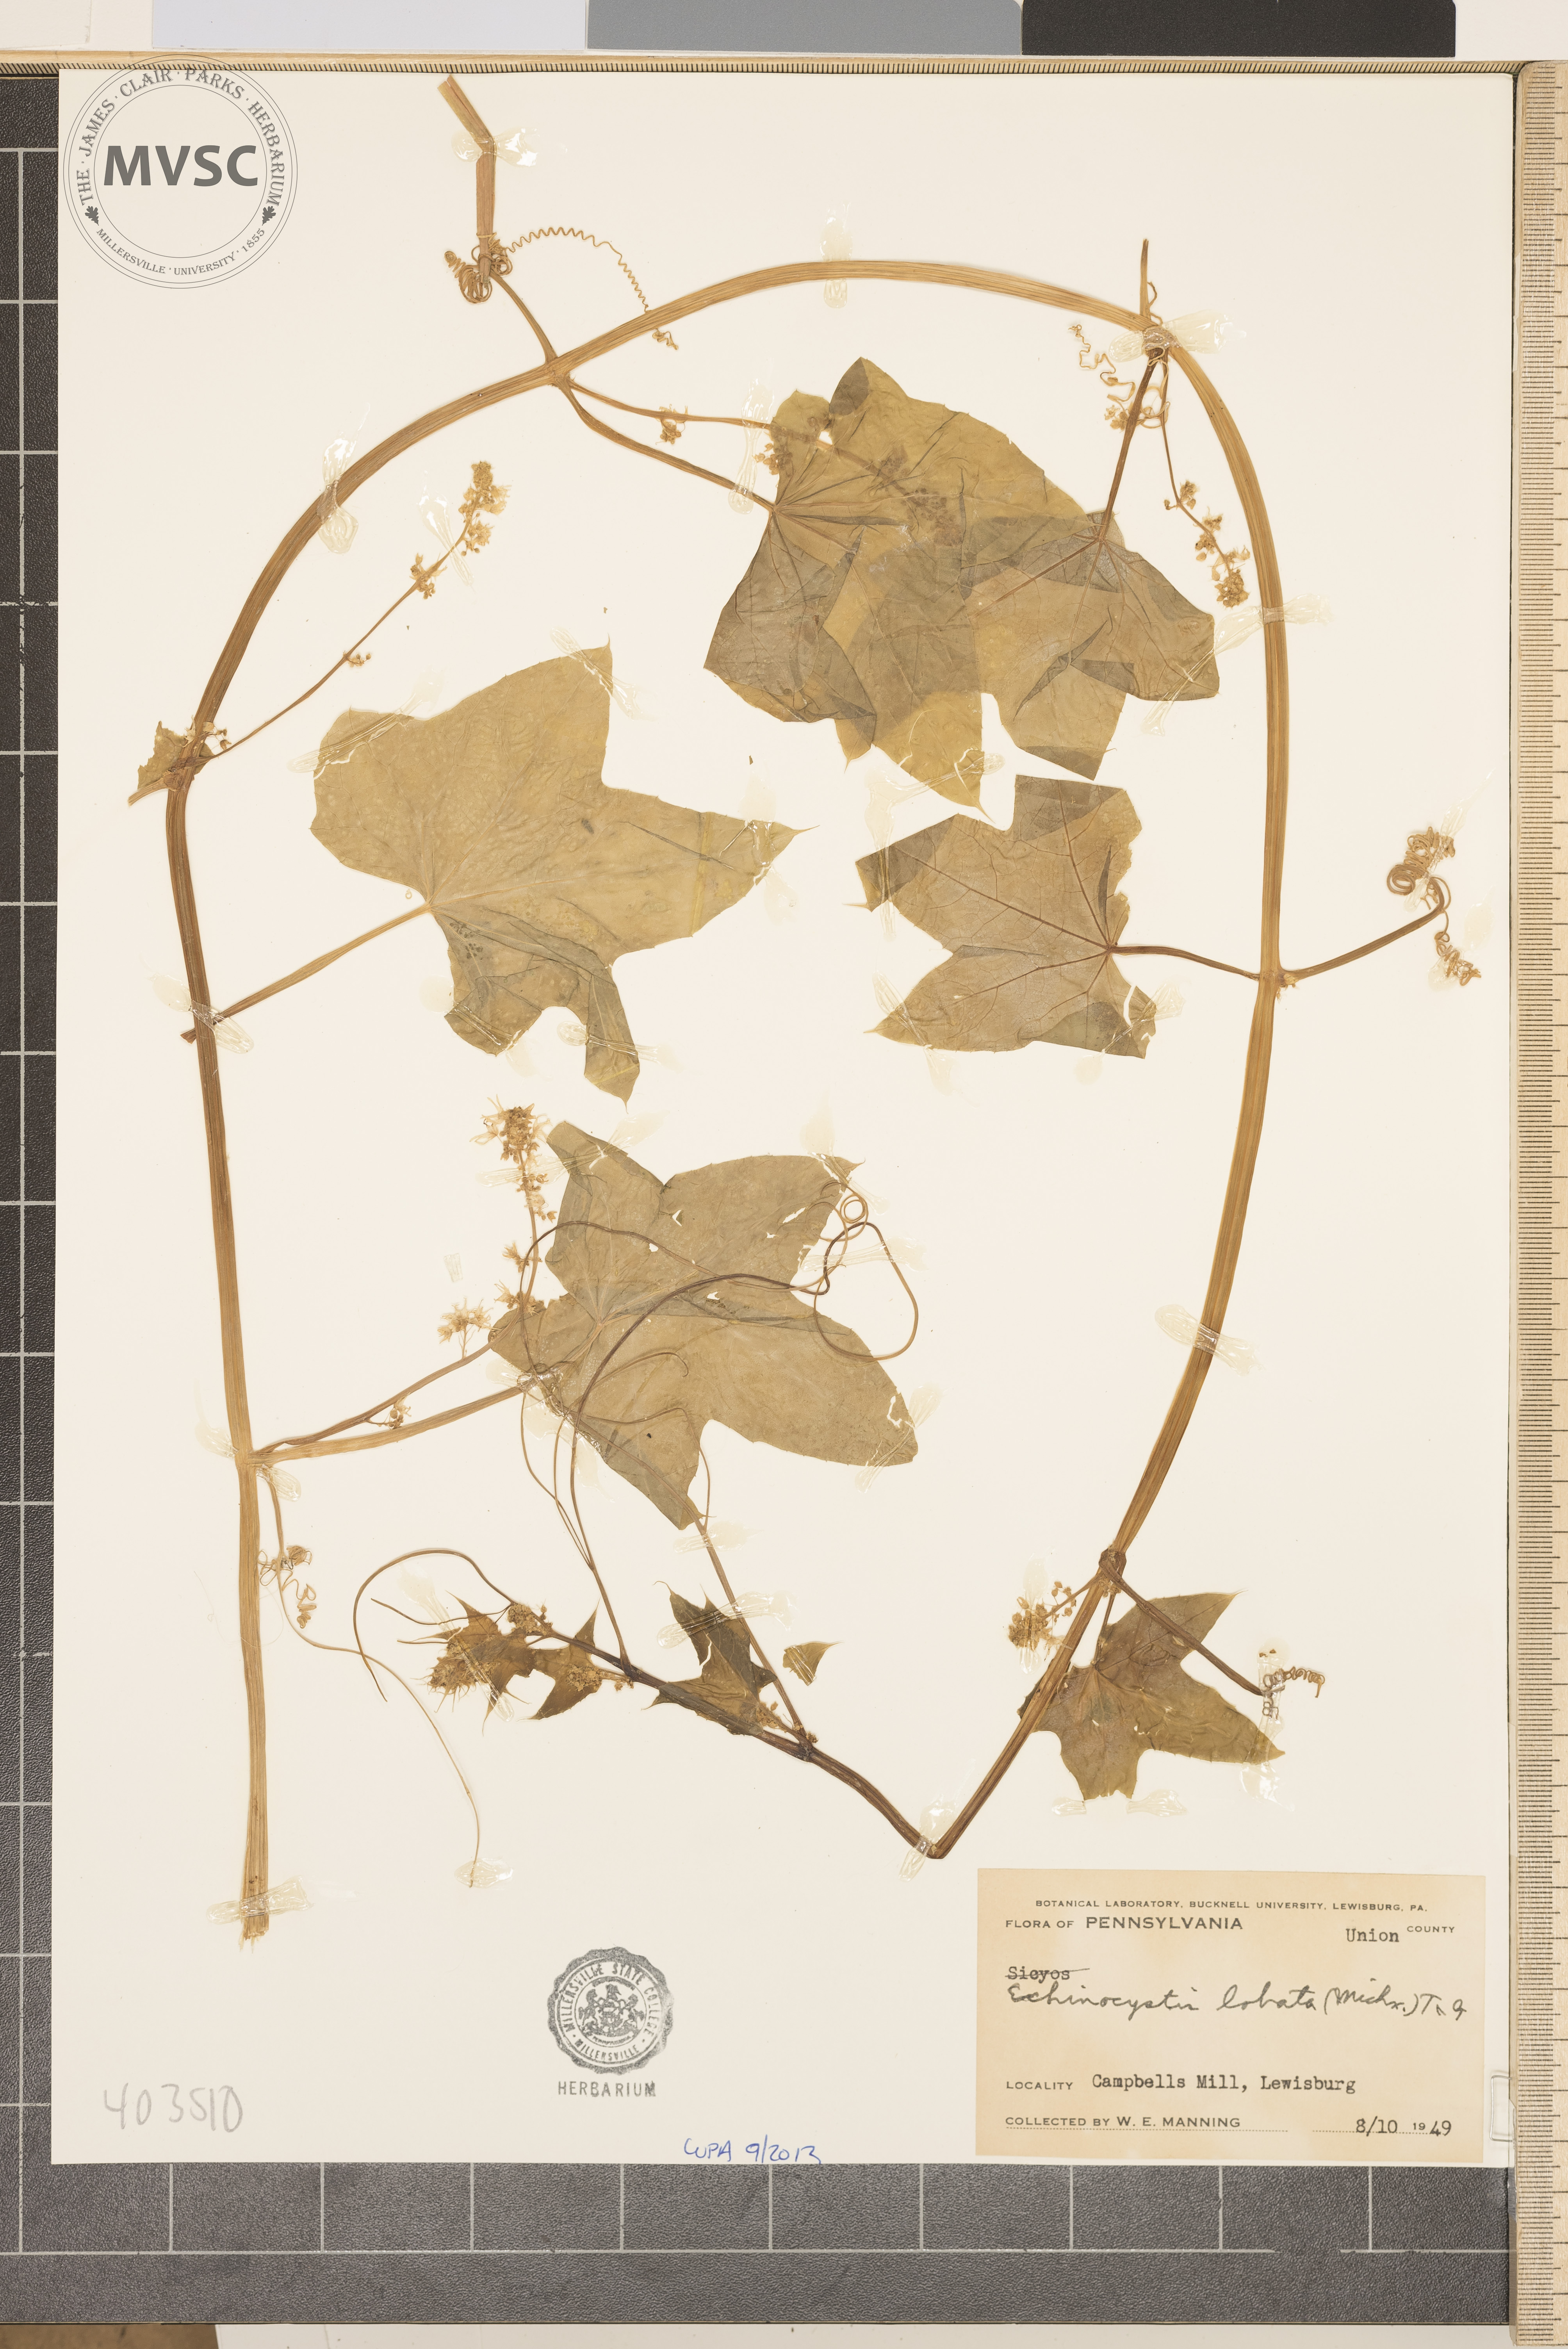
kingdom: Plantae
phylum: Tracheophyta
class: Magnoliopsida
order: Cucurbitales
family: Cucurbitaceae
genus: Echinocystis
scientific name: Echinocystis lobata
